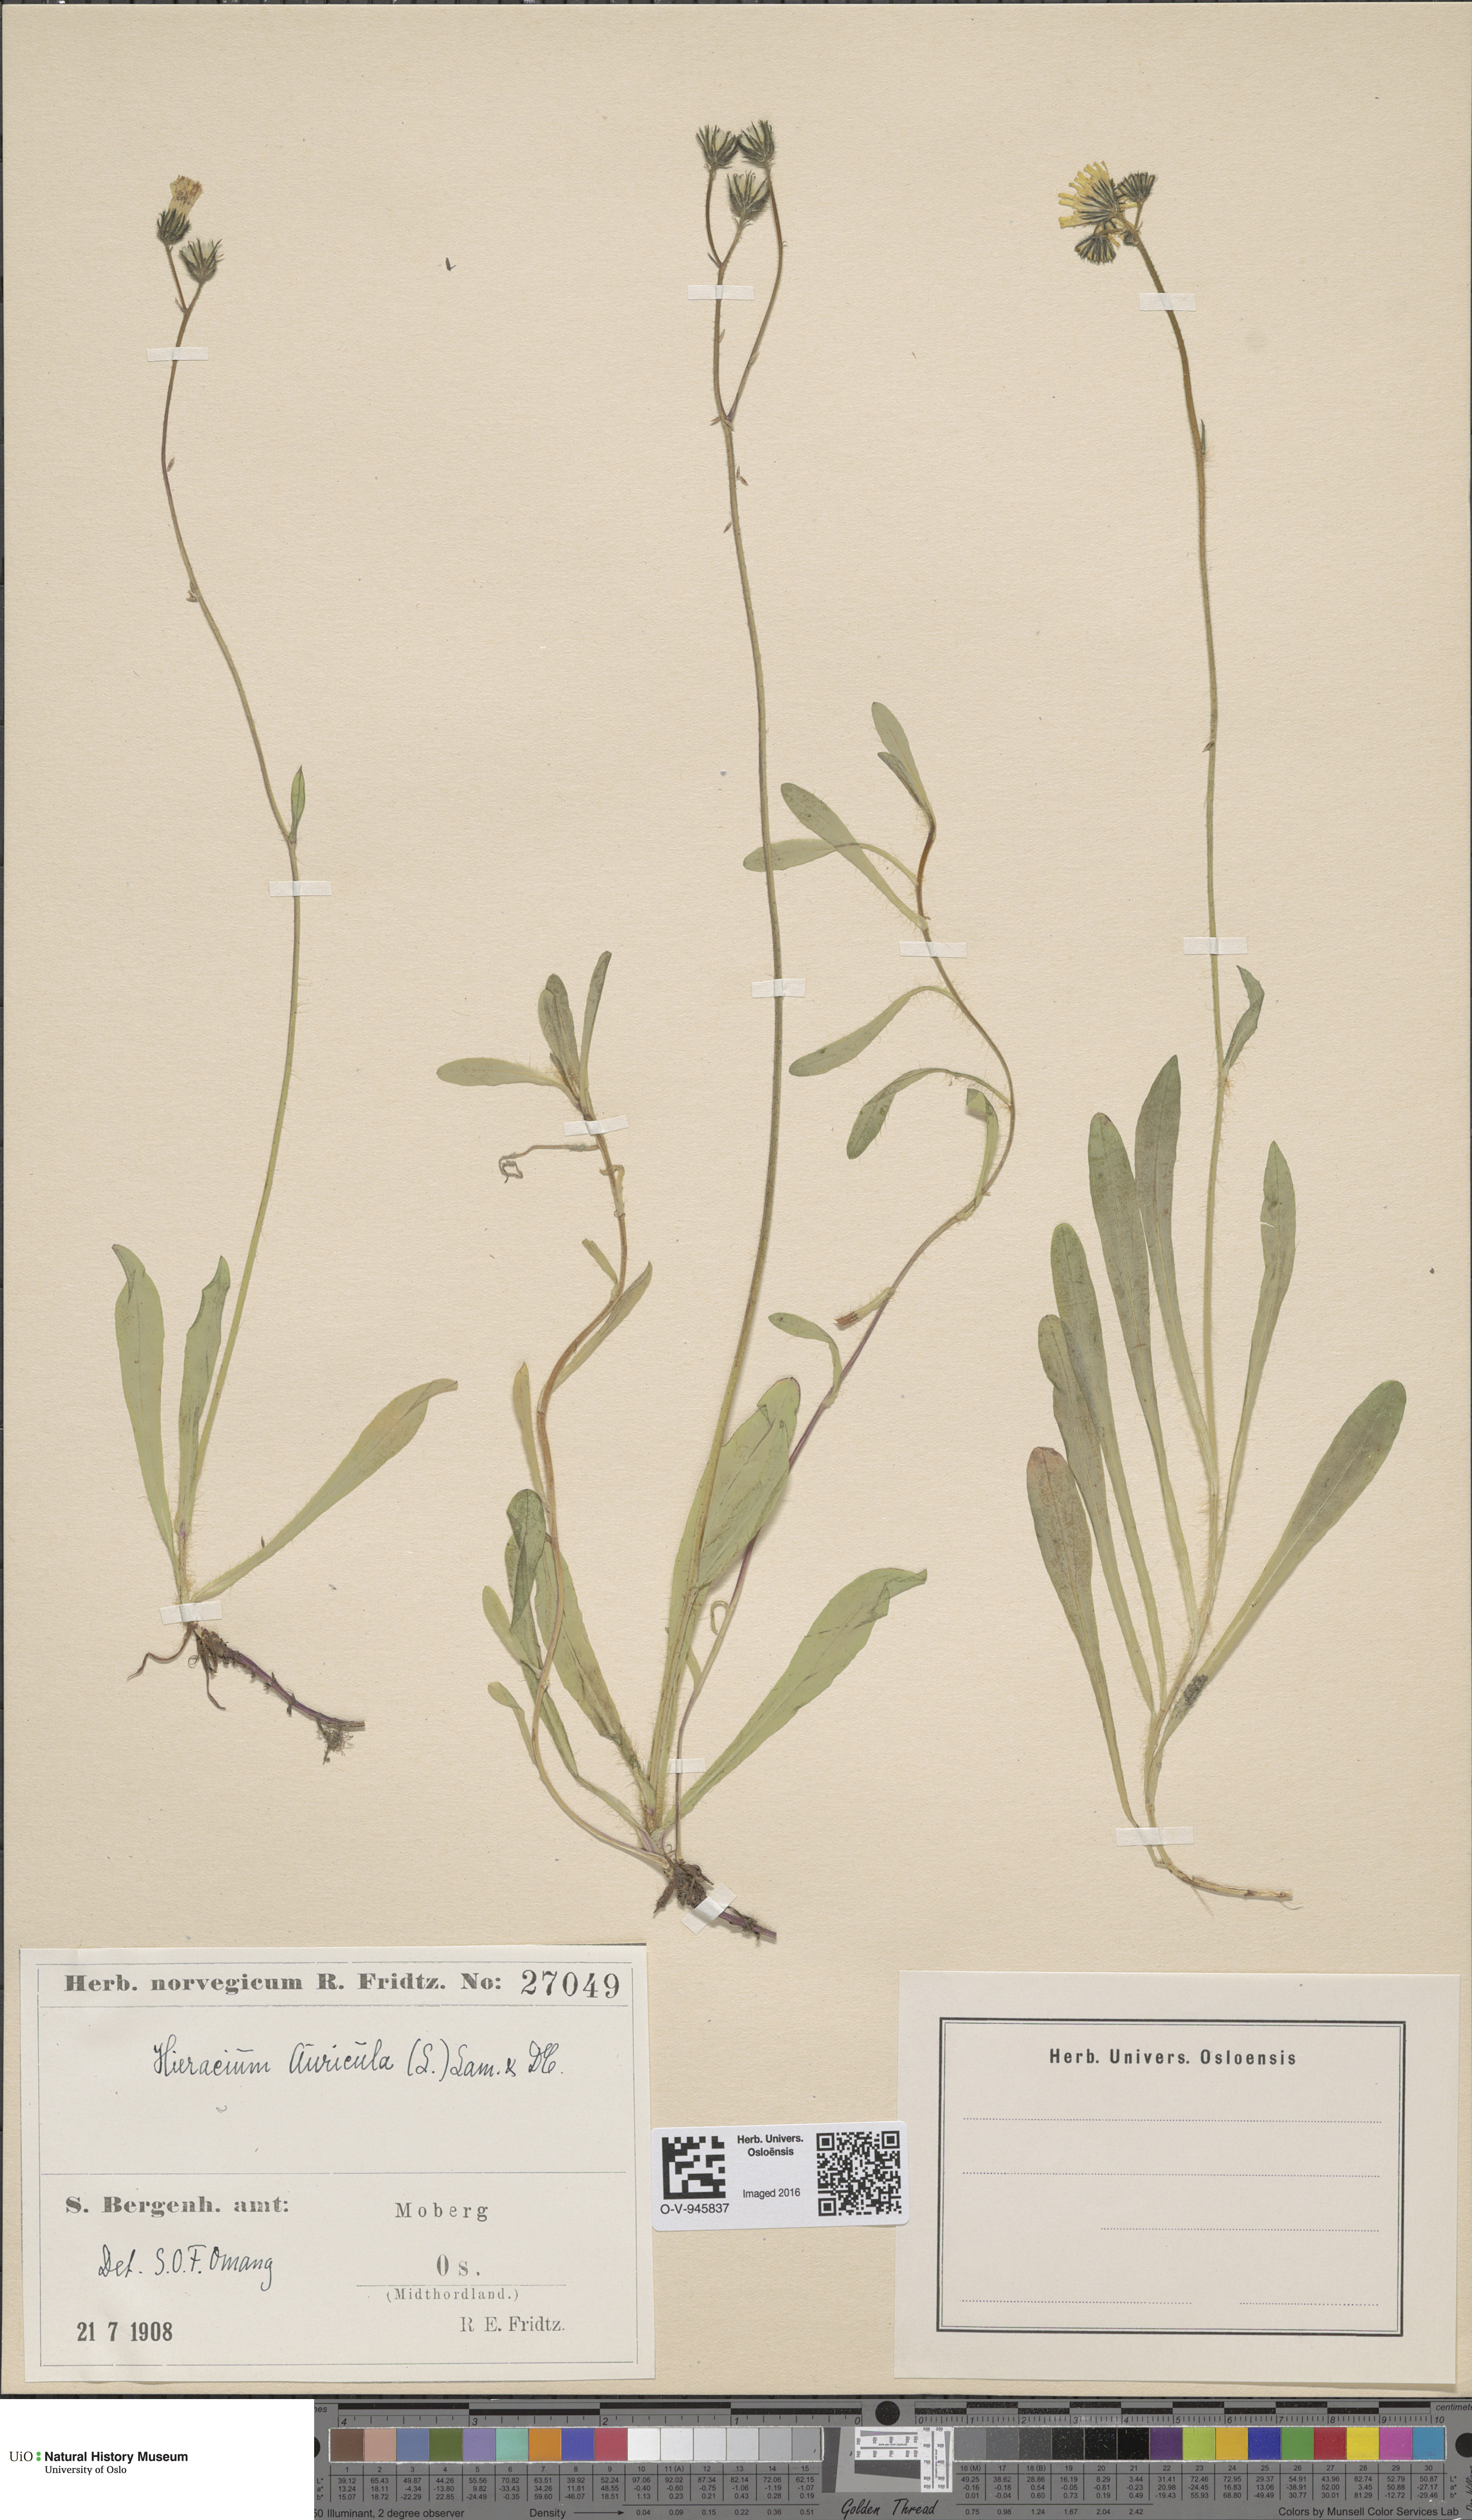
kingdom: Plantae
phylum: Tracheophyta
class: Magnoliopsida
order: Asterales
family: Asteraceae
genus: Pilosella
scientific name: Pilosella lactucella
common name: Glaucous fox-and-cubs
